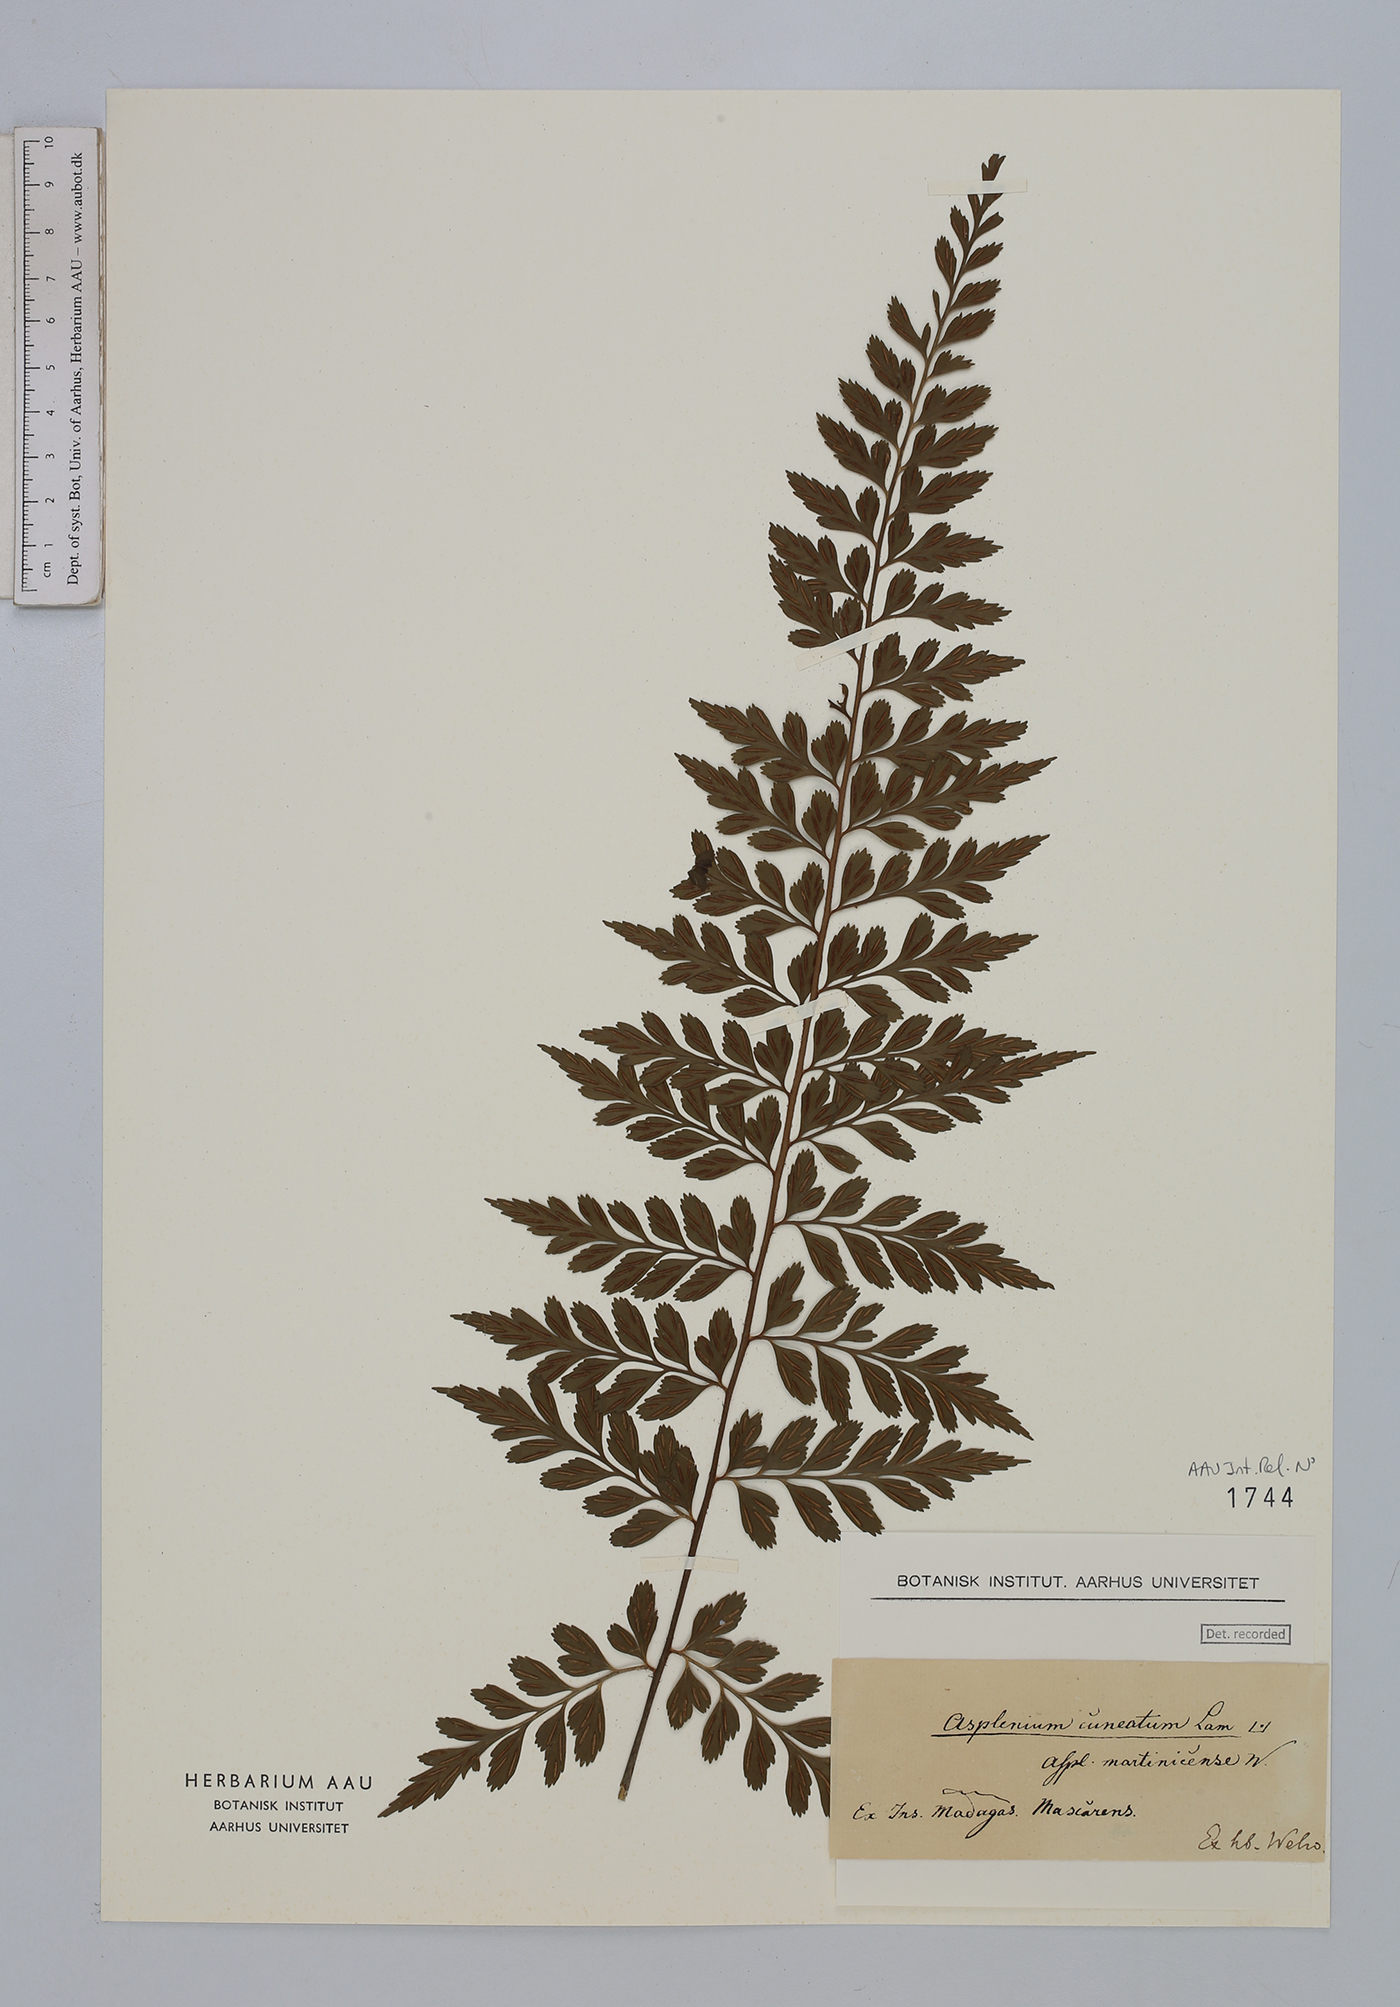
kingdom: Plantae
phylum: Tracheophyta
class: Polypodiopsida
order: Polypodiales
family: Aspleniaceae
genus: Asplenium
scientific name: Asplenium cuneatum
